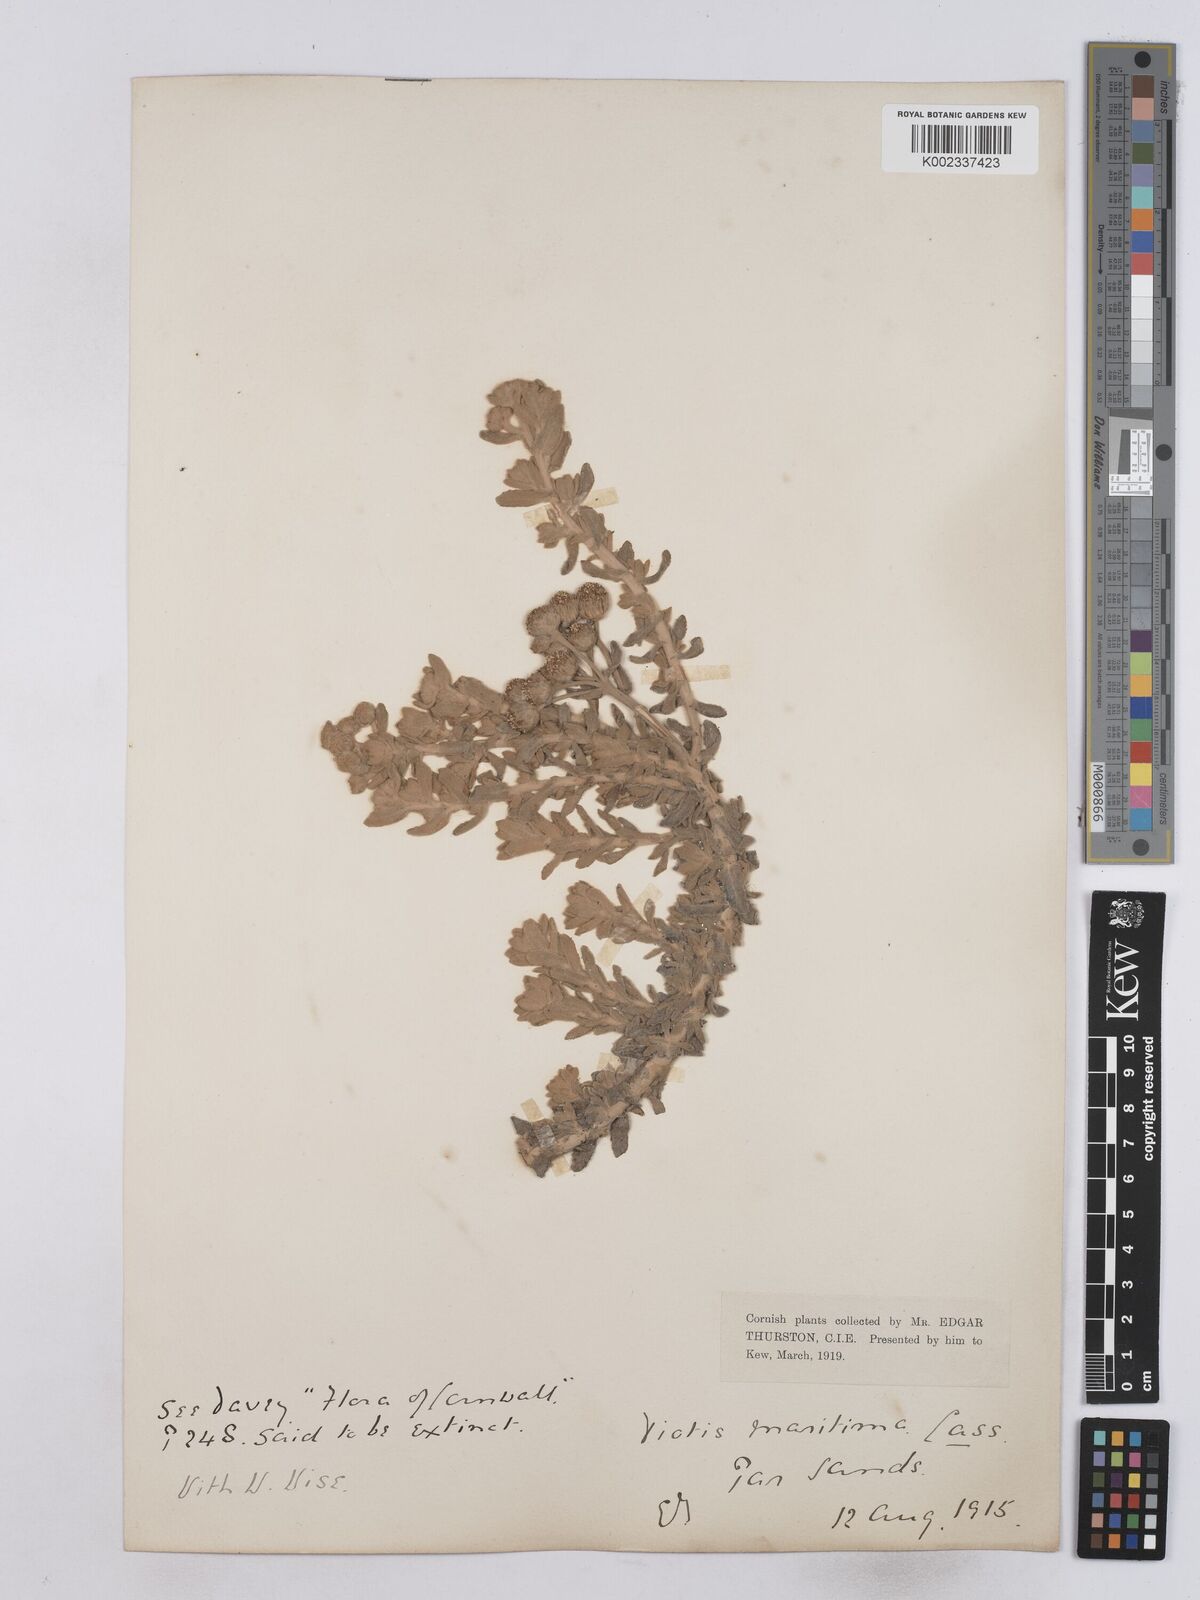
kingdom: Plantae
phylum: Tracheophyta
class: Magnoliopsida
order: Asterales
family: Asteraceae
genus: Achillea
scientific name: Achillea maritima
